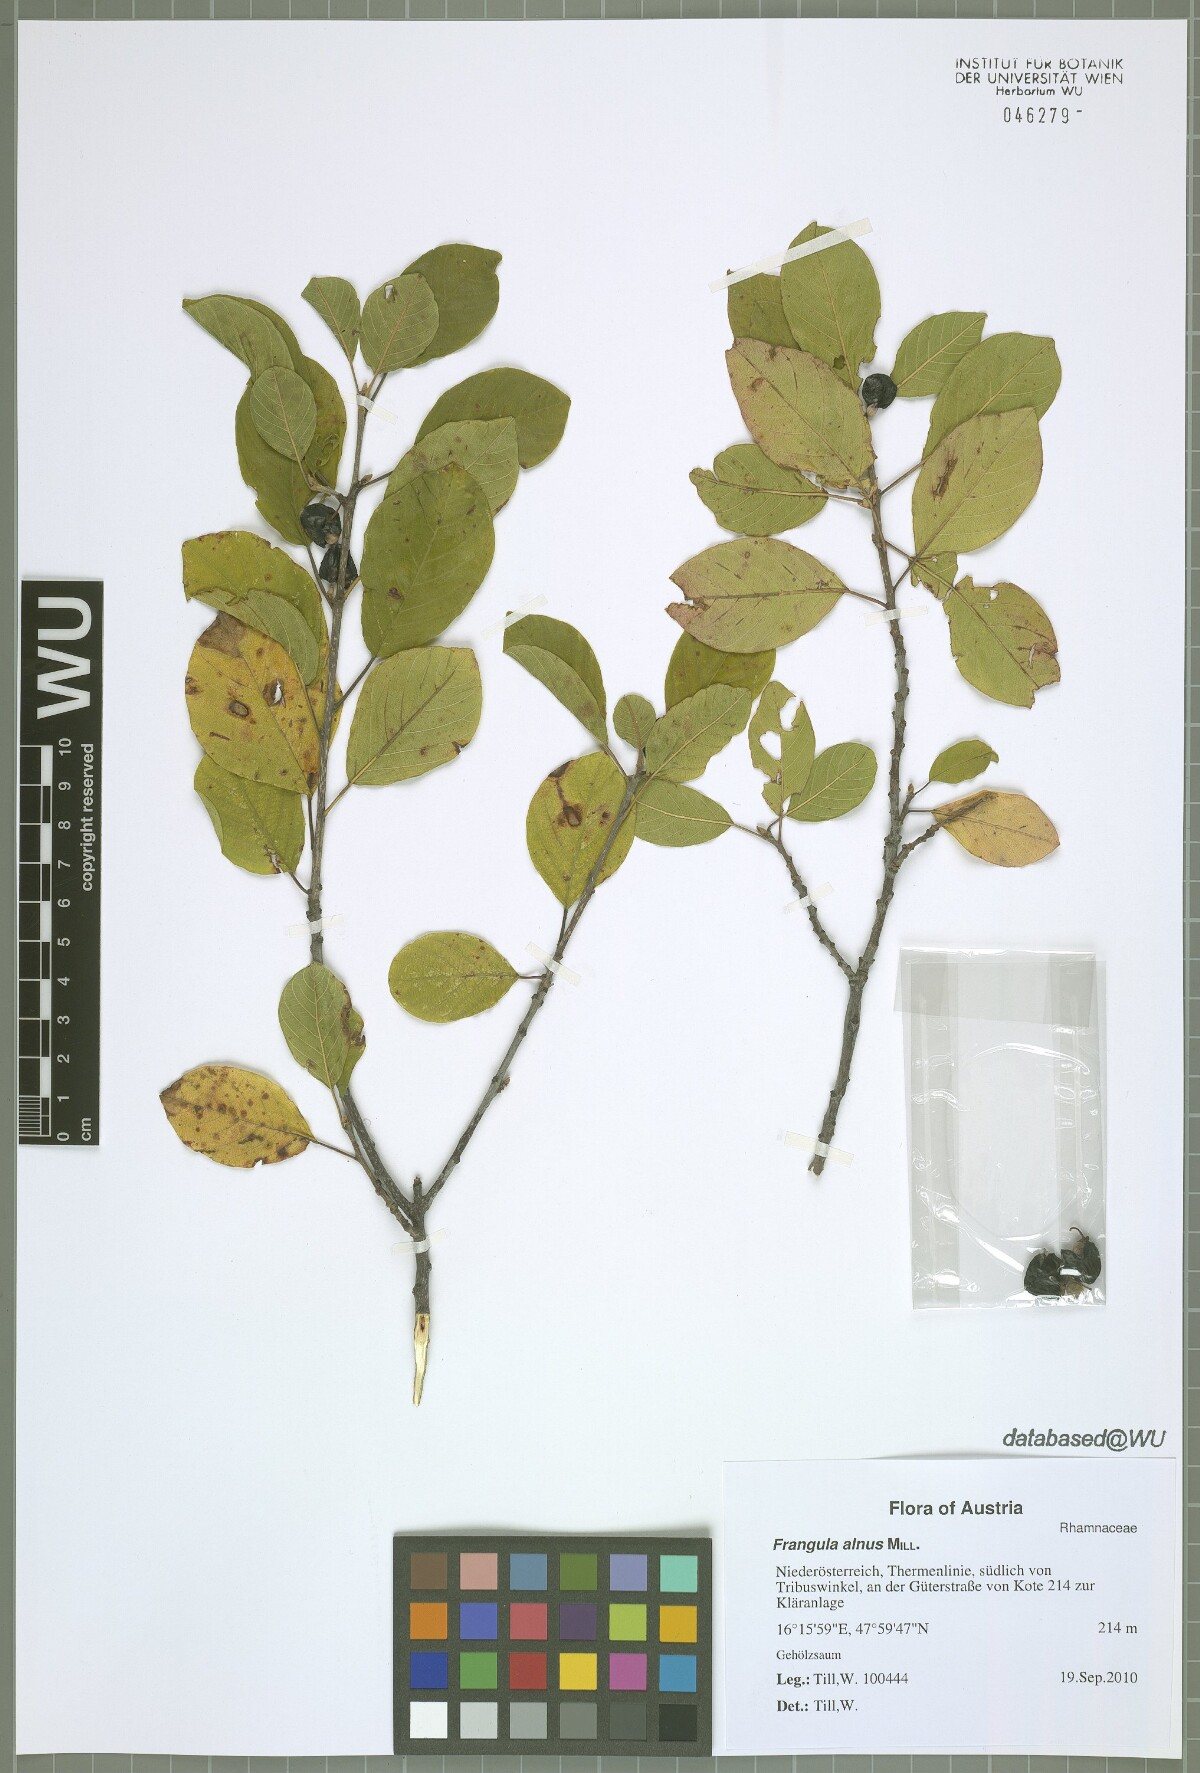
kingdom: Plantae
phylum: Tracheophyta
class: Magnoliopsida
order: Rosales
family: Rhamnaceae
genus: Frangula
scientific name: Frangula alnus
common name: Alder buckthorn
